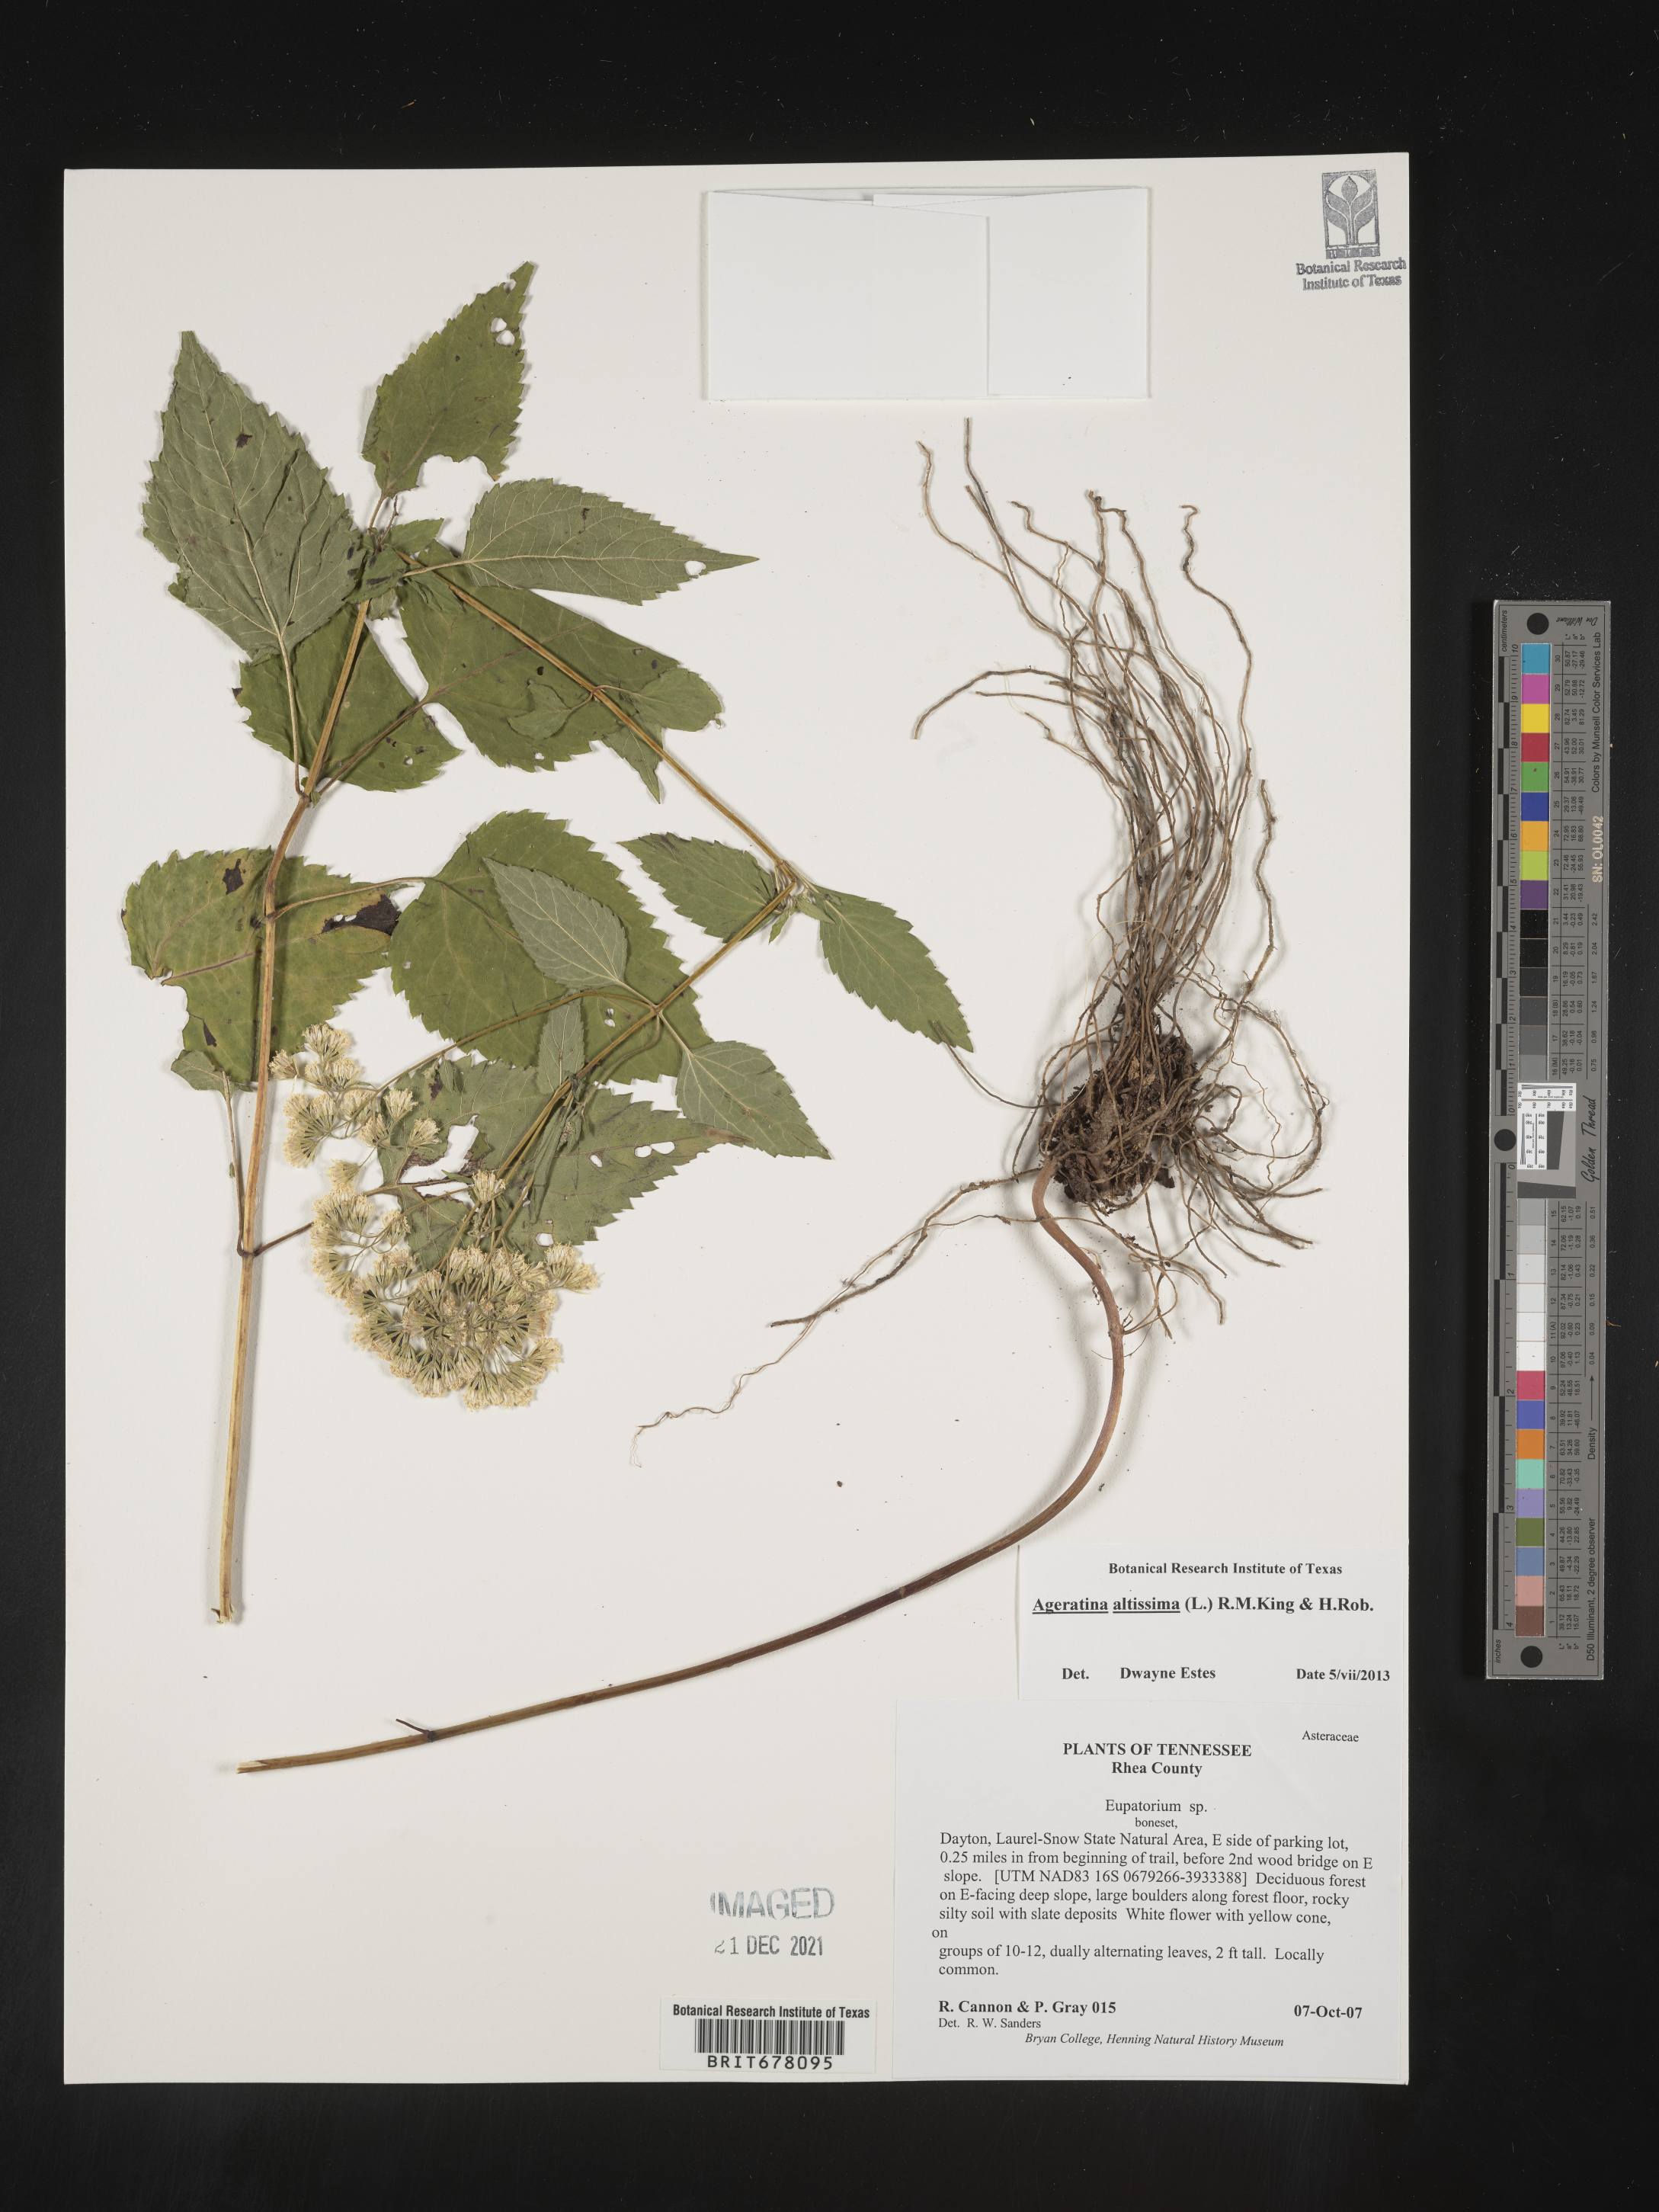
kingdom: Plantae
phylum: Tracheophyta
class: Magnoliopsida
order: Asterales
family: Asteraceae
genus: Eupatorium
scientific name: Eupatorium
